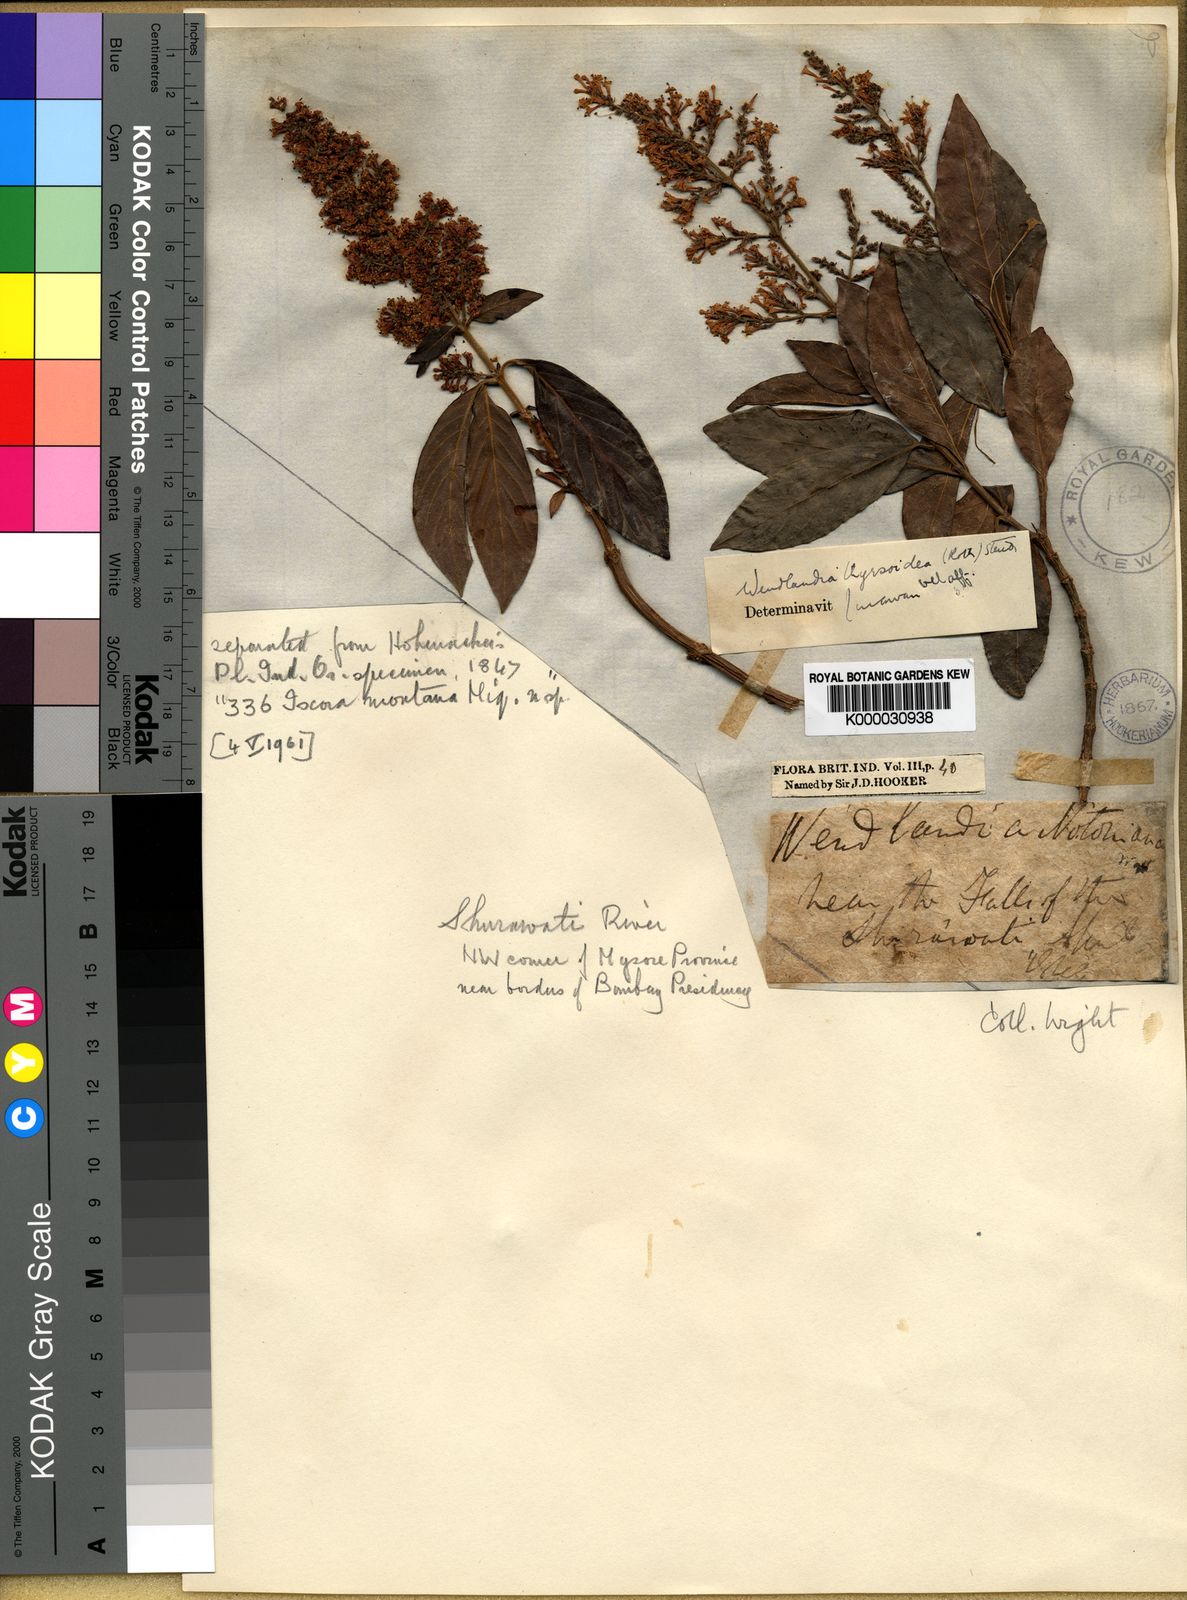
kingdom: Plantae
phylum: Tracheophyta
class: Magnoliopsida
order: Gentianales
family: Rubiaceae
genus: Wendlandia
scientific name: Wendlandia
